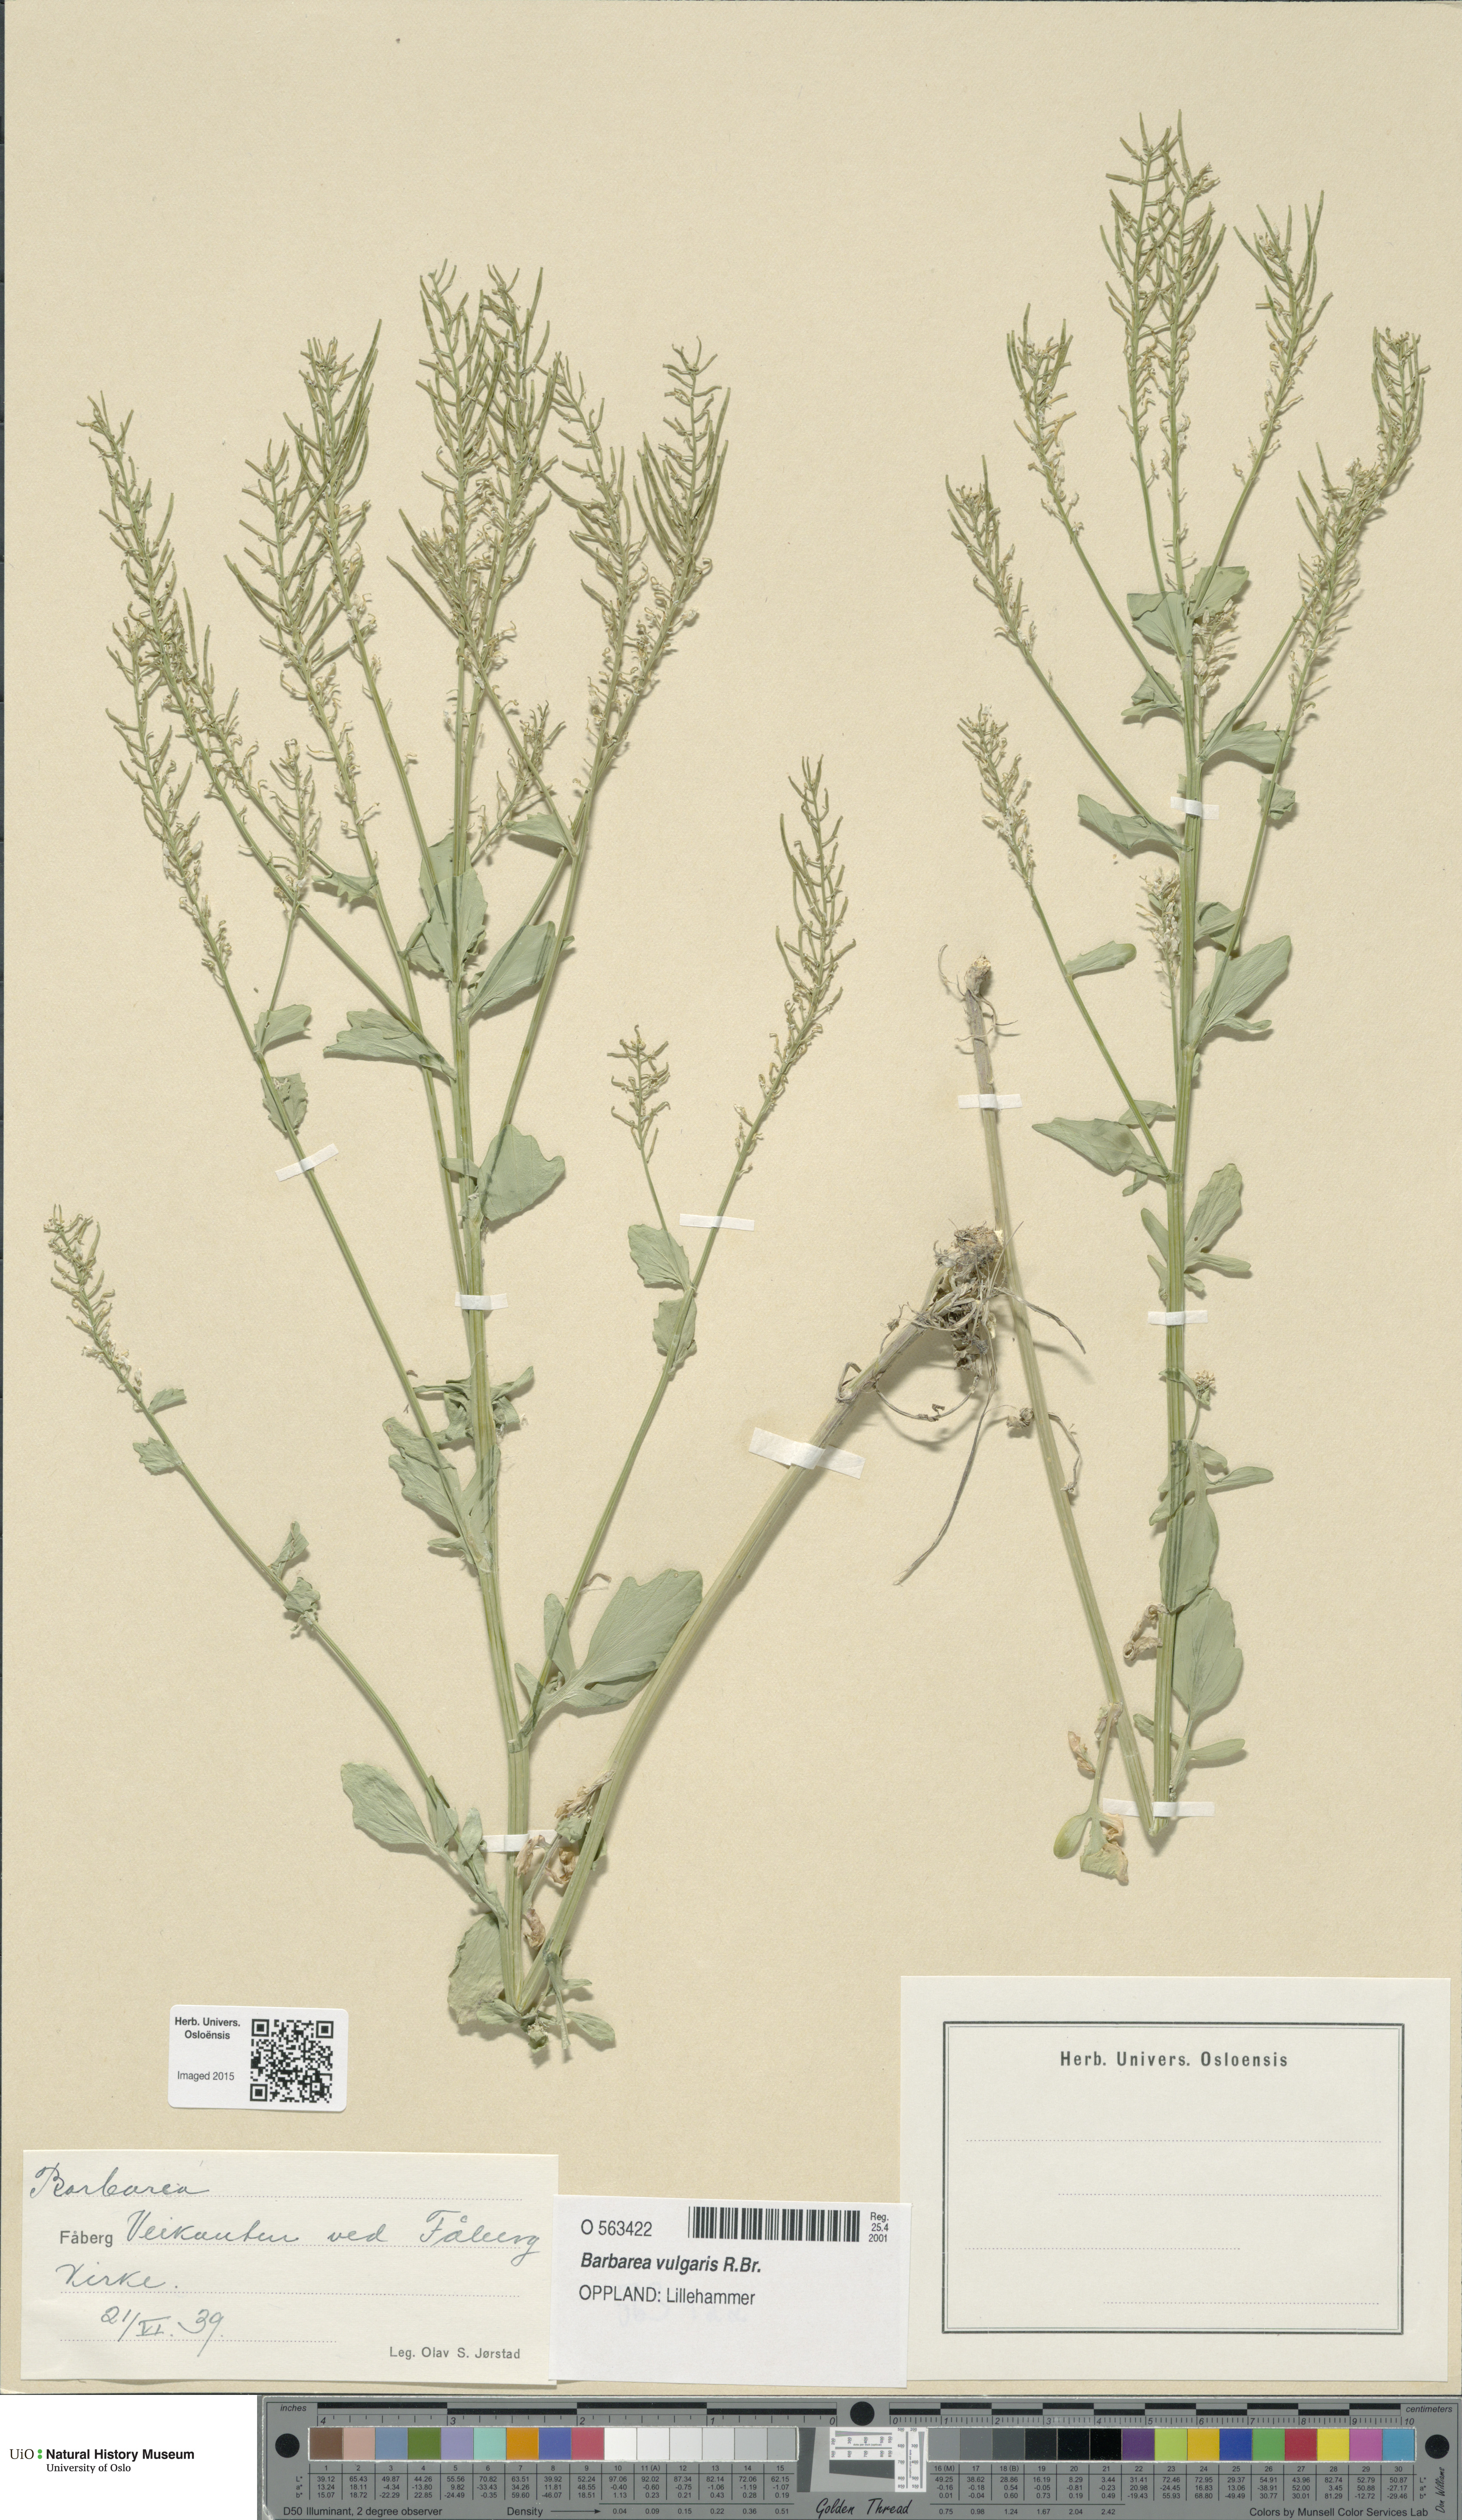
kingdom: Plantae
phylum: Tracheophyta
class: Magnoliopsida
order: Brassicales
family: Brassicaceae
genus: Barbarea
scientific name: Barbarea vulgaris
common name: Cressy-greens
